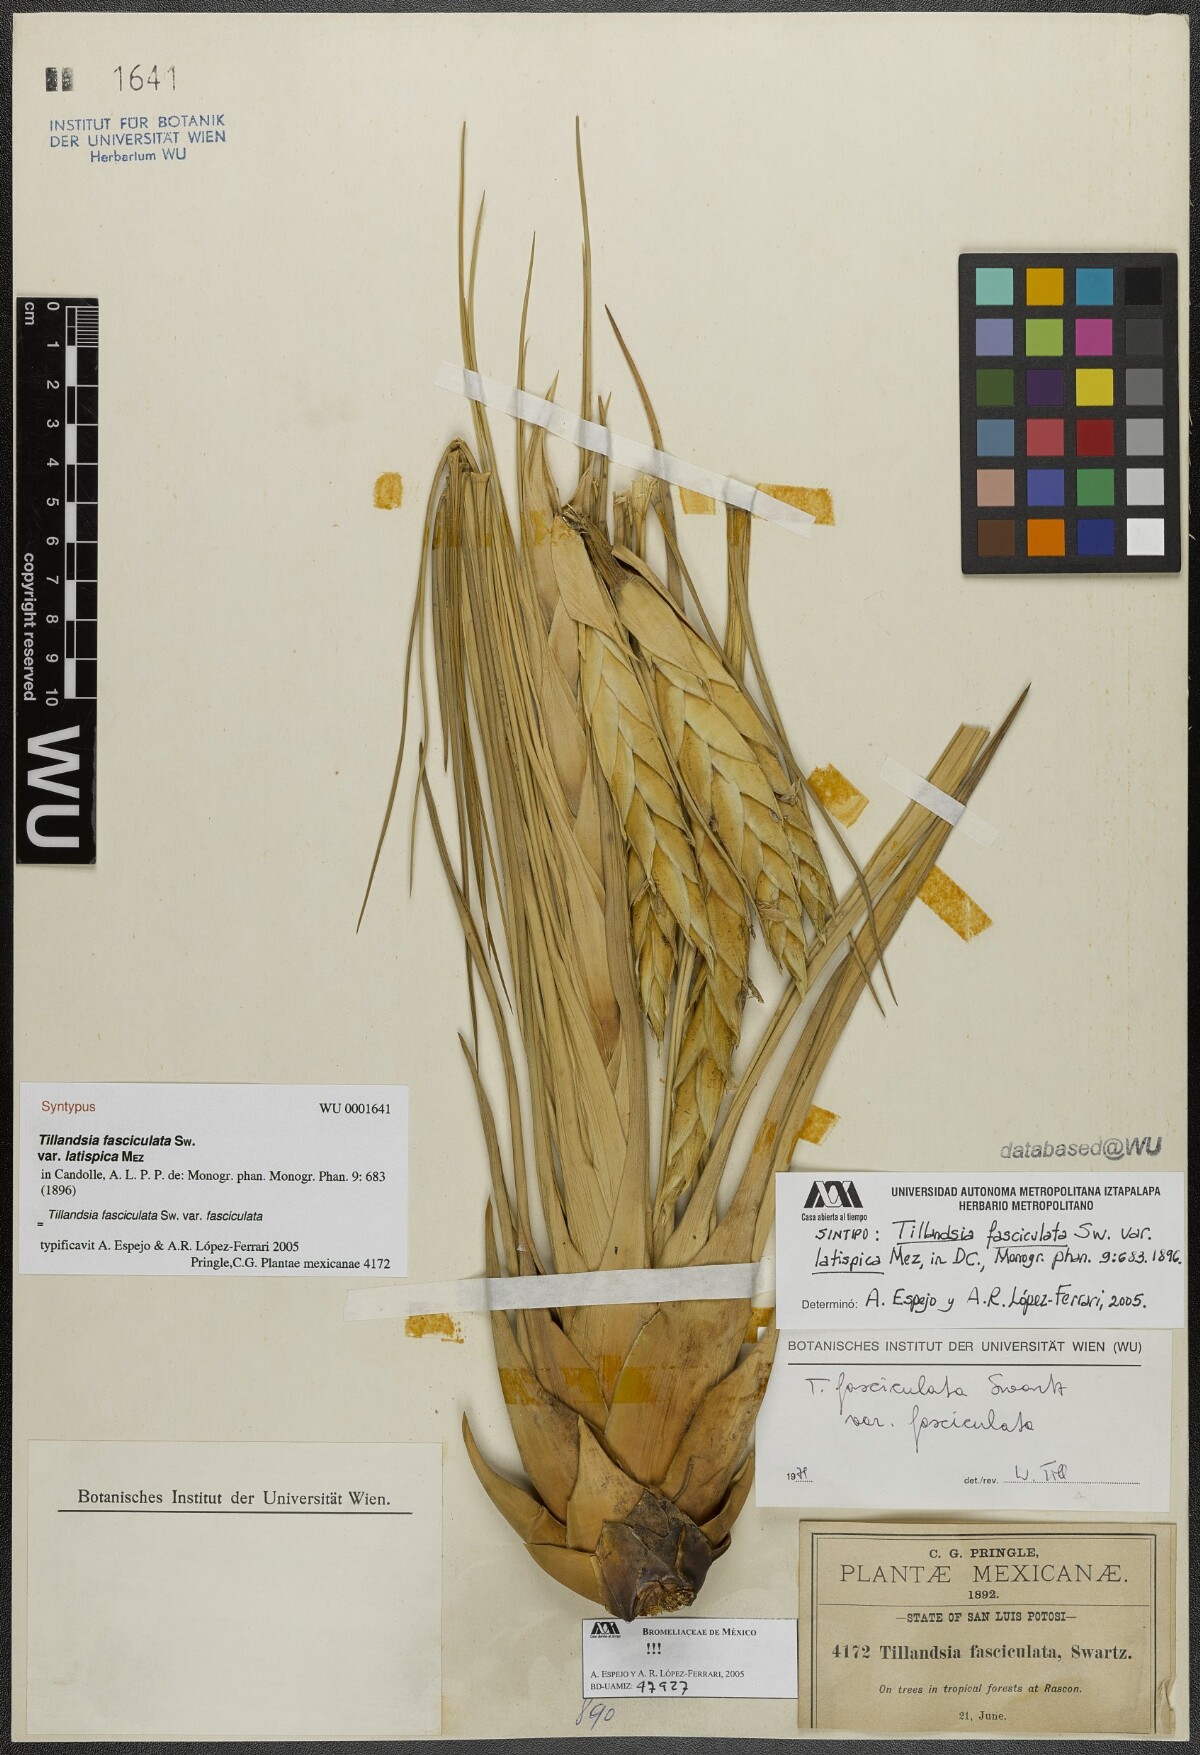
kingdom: Plantae
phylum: Tracheophyta
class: Liliopsida
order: Poales
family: Bromeliaceae
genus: Tillandsia
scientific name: Tillandsia fasciculata
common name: Giant airplant
